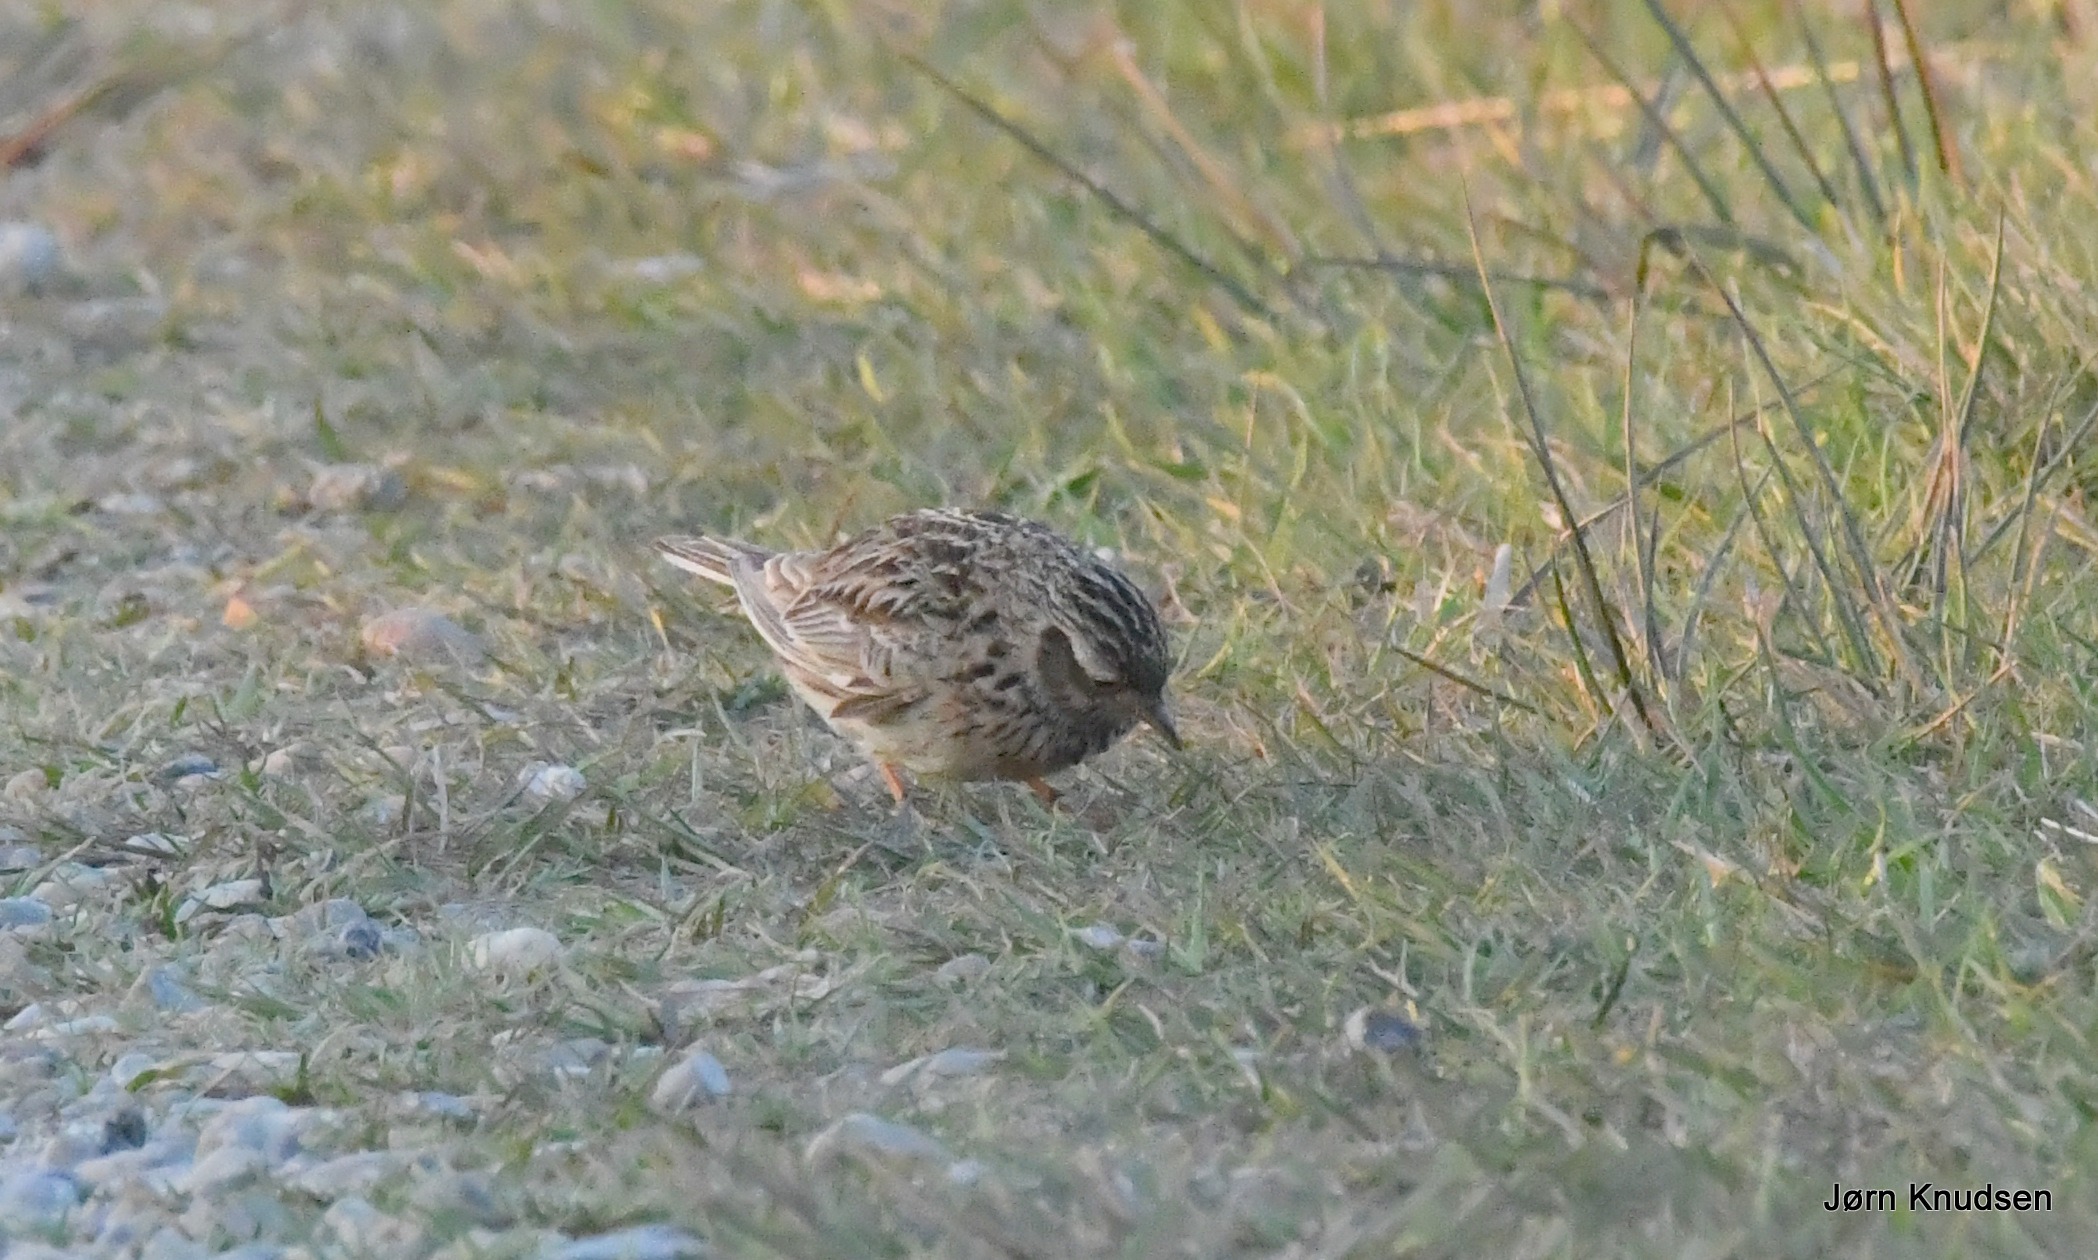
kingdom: Animalia
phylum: Chordata
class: Aves
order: Passeriformes
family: Alaudidae
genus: Alauda
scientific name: Alauda arvensis
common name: Sanglærke
